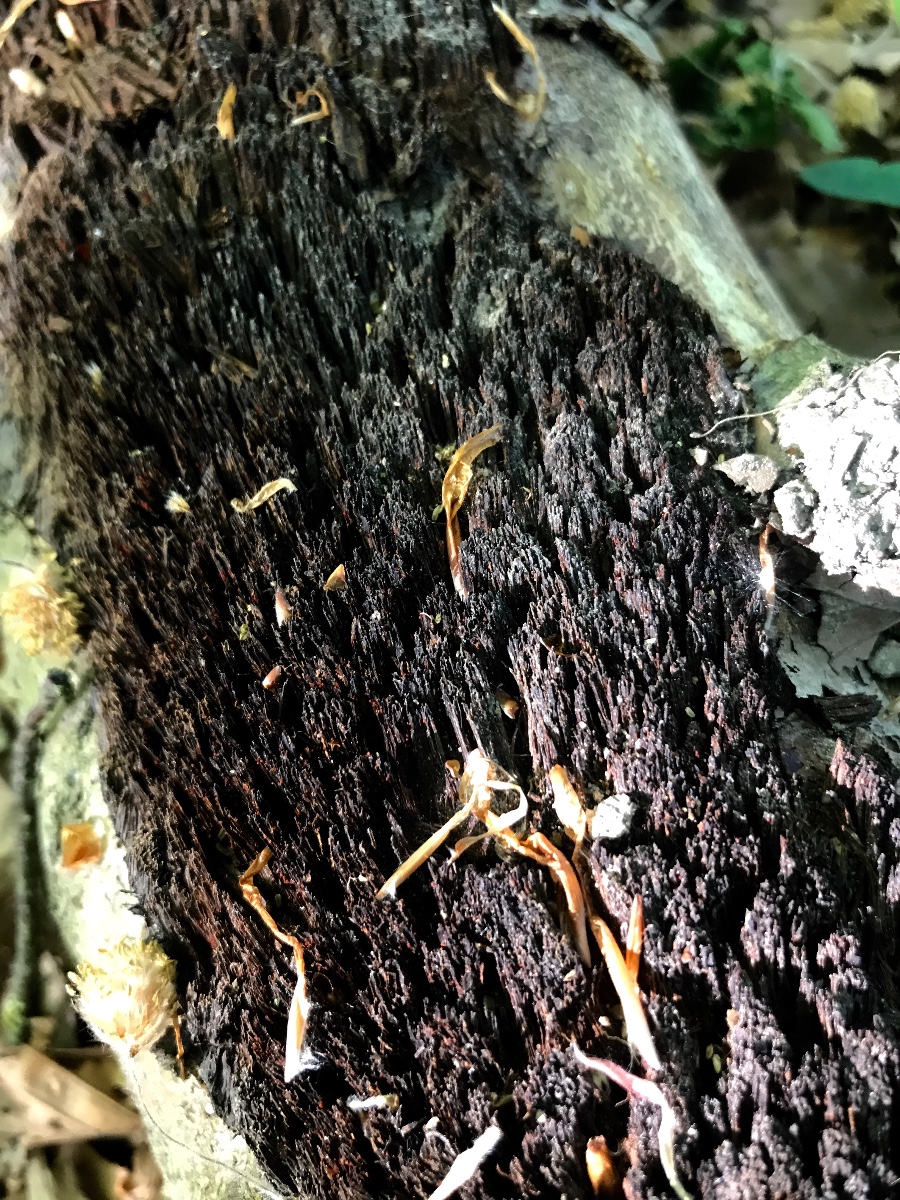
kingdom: Fungi
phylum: Basidiomycota
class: Agaricomycetes
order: Hymenochaetales
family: Hymenochaetaceae
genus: Mensularia
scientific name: Mensularia nodulosa
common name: bøge-spejlporesvamp
